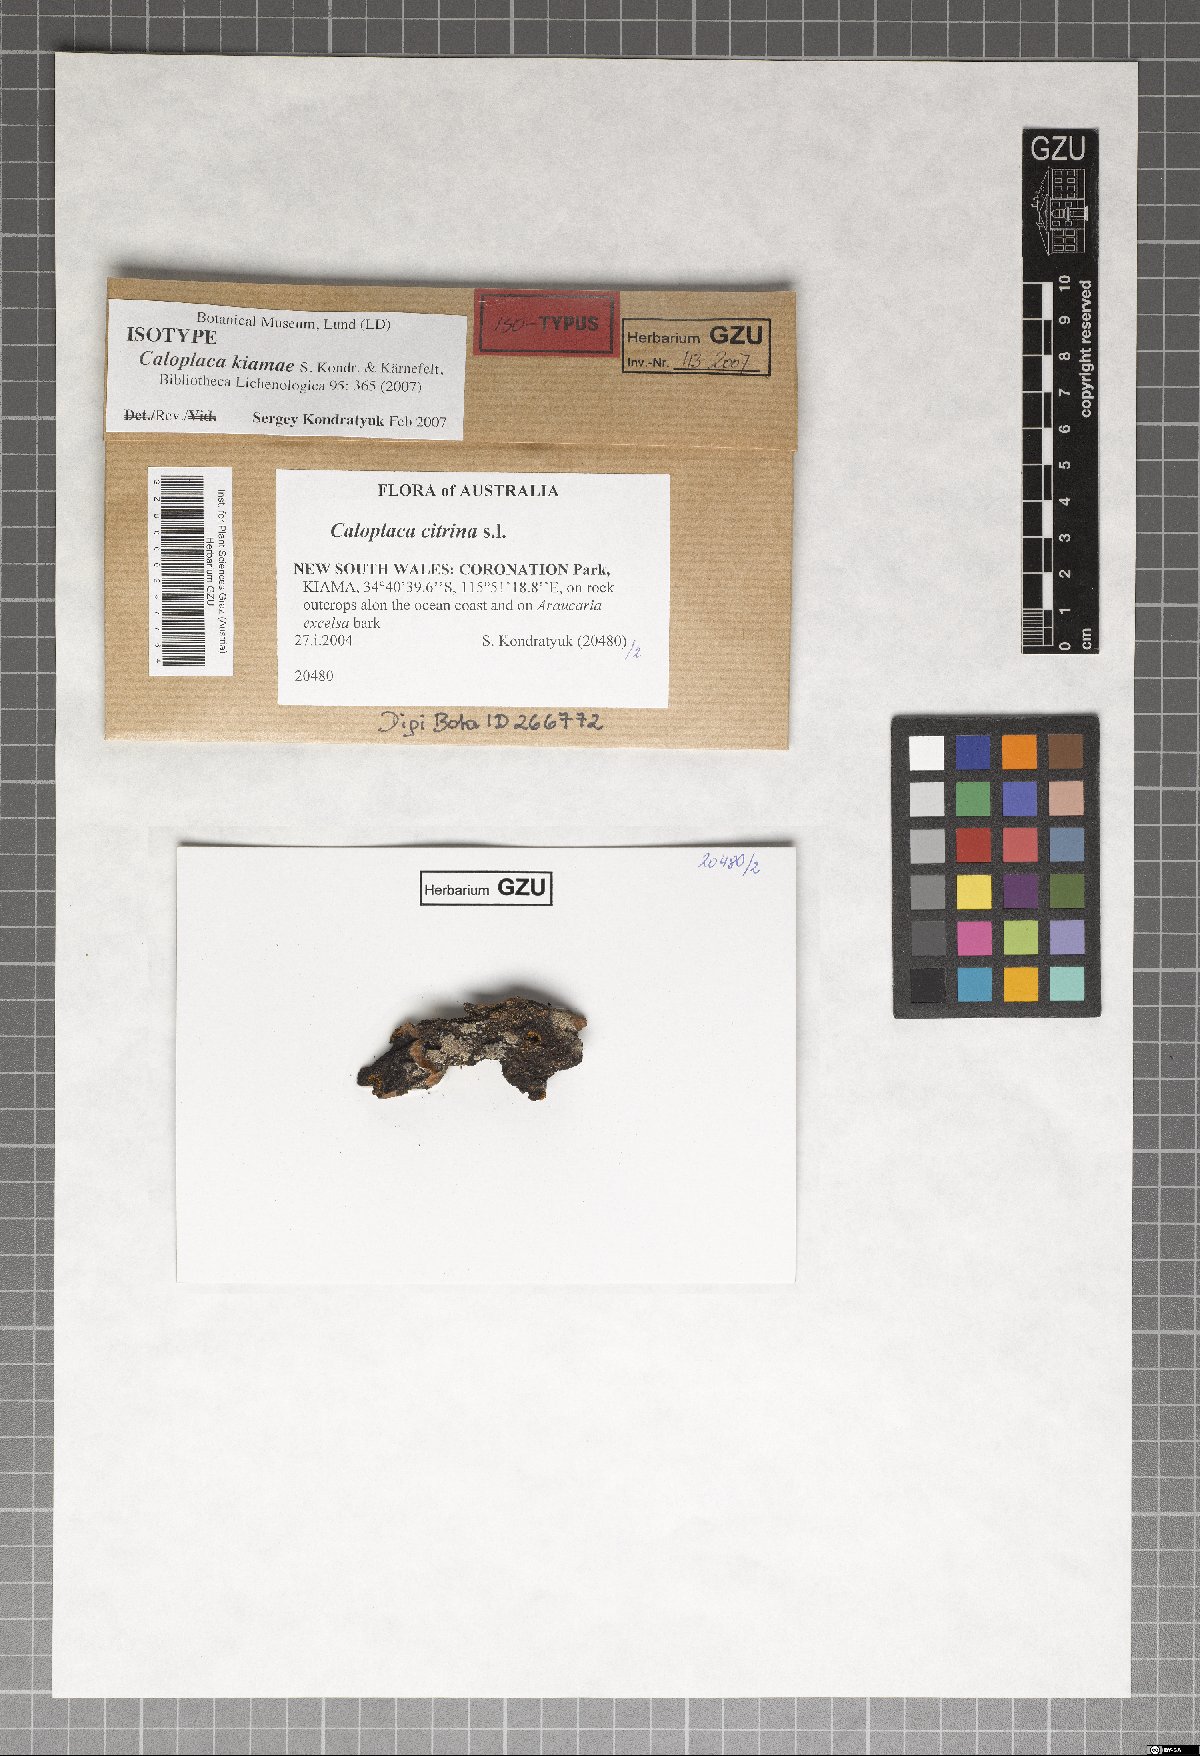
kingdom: Fungi
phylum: Ascomycota
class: Lecanoromycetes
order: Teloschistales
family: Teloschistaceae
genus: Filsoniana
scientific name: Filsoniana kiamae
